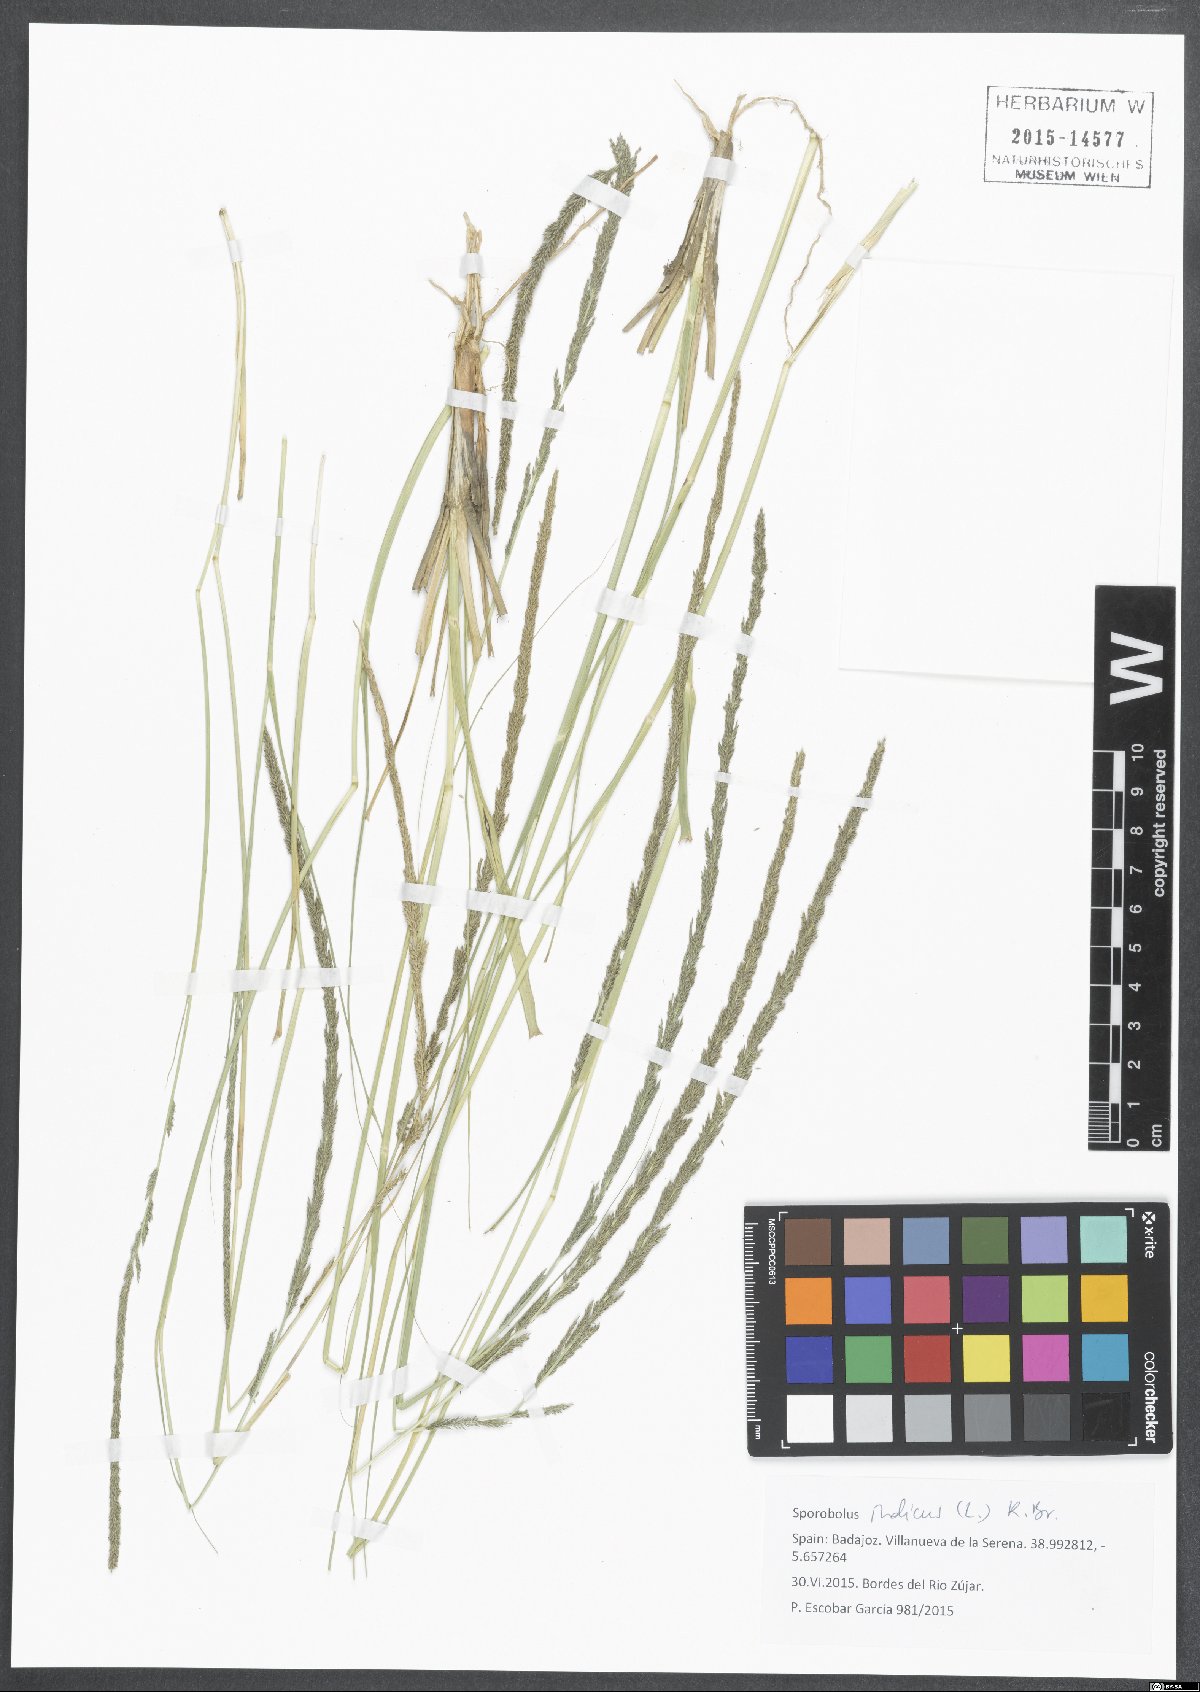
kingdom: Plantae
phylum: Tracheophyta
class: Liliopsida
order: Poales
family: Poaceae
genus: Sporobolus
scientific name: Sporobolus indicus
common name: Smut grass
